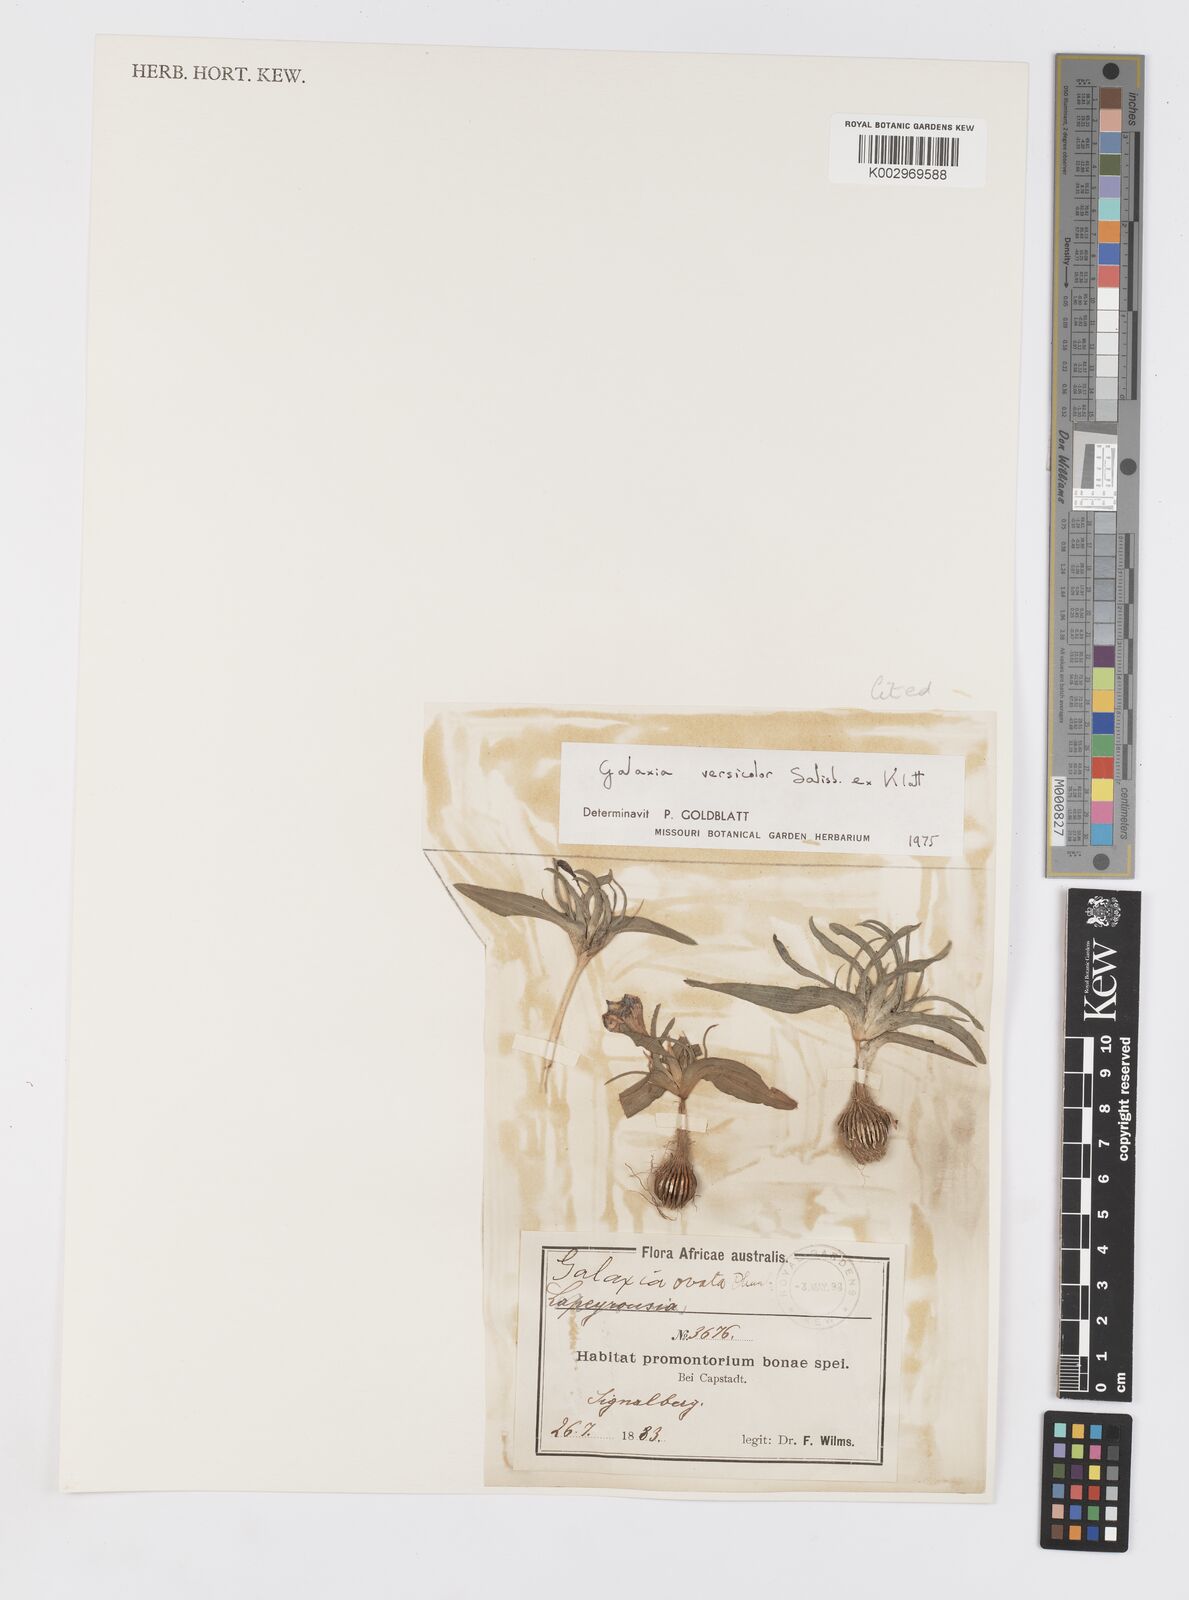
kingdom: Plantae
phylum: Tracheophyta
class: Liliopsida
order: Asparagales
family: Iridaceae
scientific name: Iridaceae
